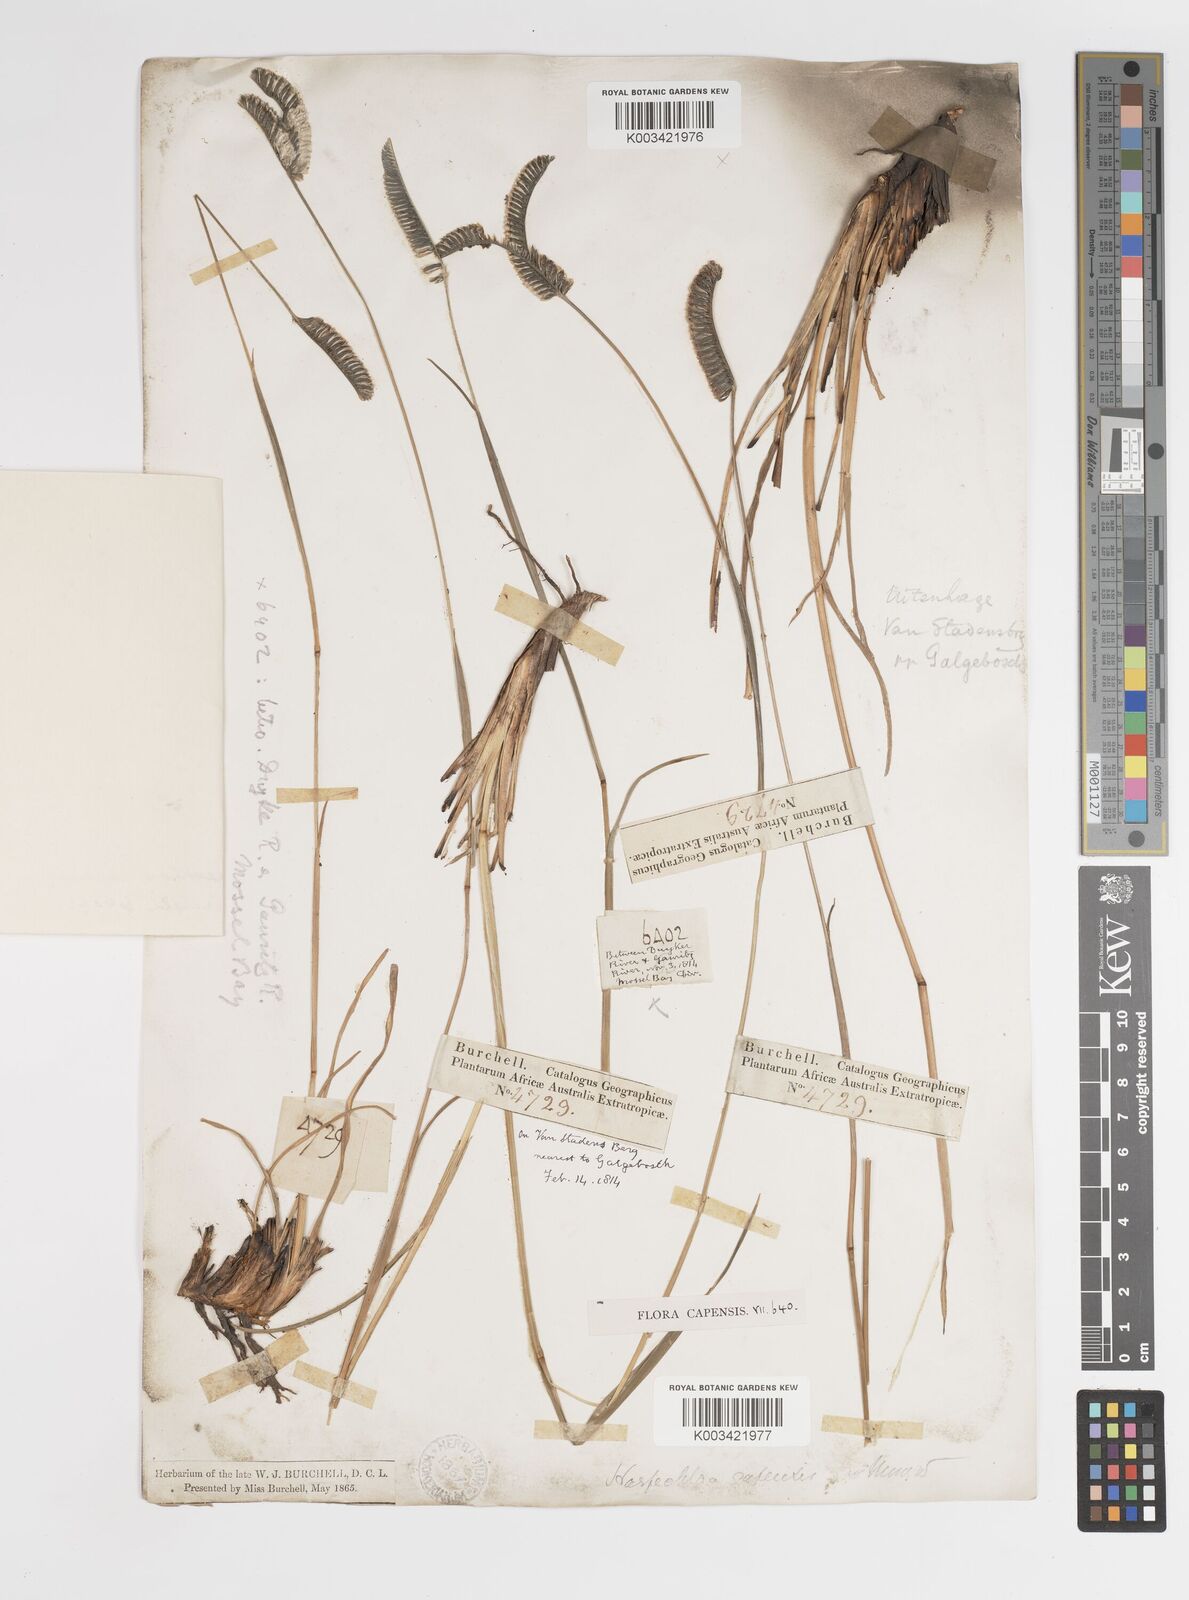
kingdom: Plantae
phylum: Tracheophyta
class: Liliopsida
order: Poales
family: Poaceae
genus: Harpochloa
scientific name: Harpochloa falx
